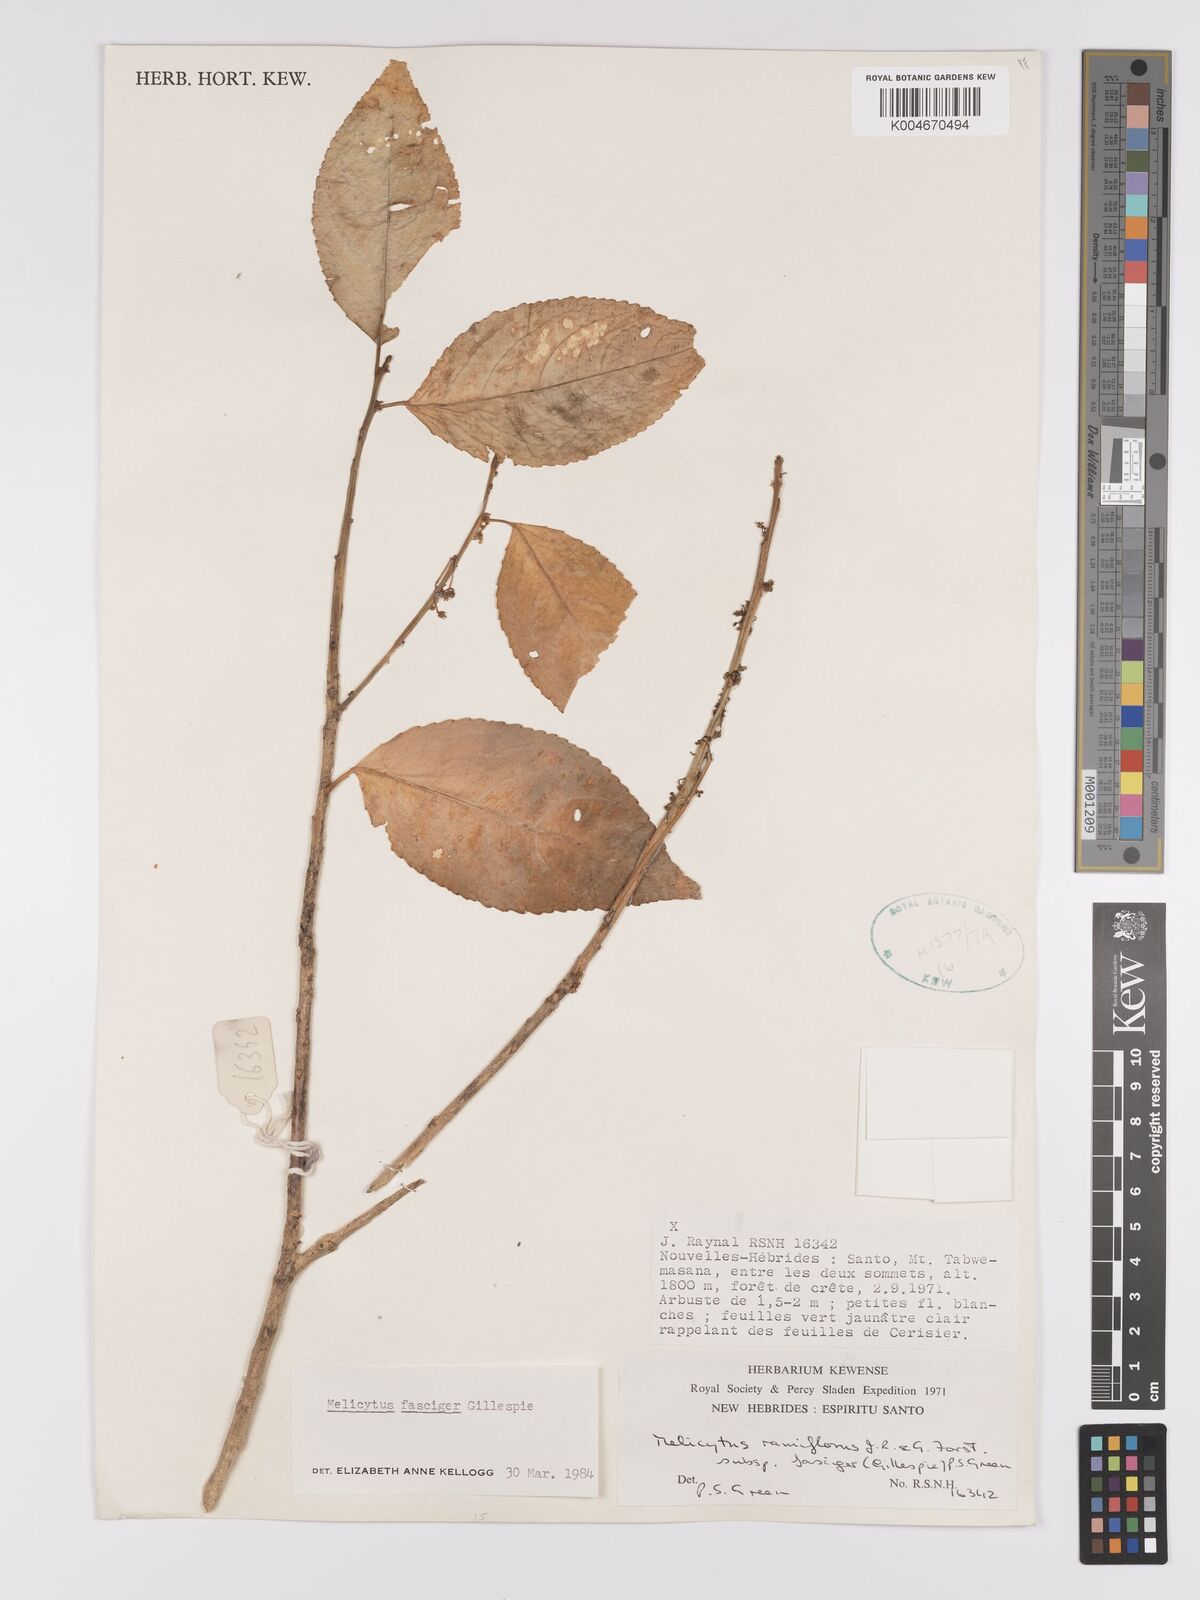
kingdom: Plantae
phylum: Tracheophyta
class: Magnoliopsida
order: Malpighiales
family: Violaceae
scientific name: Violaceae
